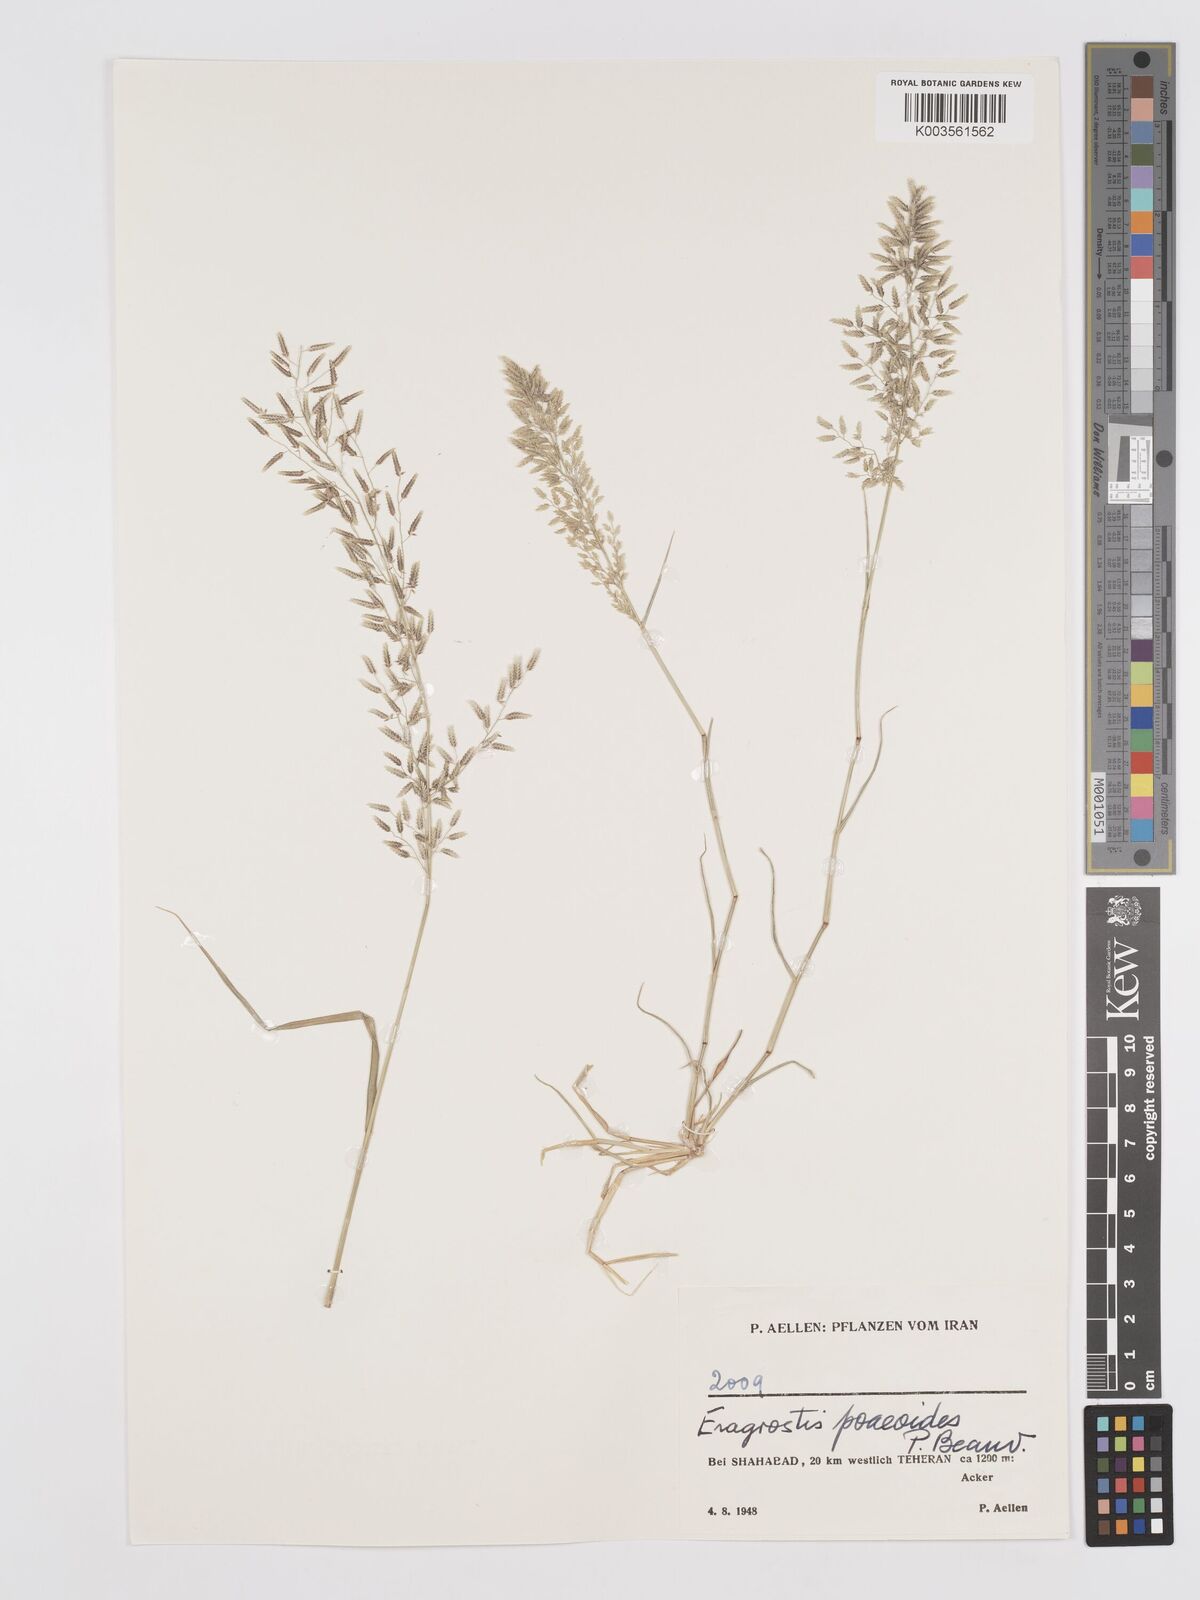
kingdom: Plantae
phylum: Tracheophyta
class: Liliopsida
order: Poales
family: Poaceae
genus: Eragrostis
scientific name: Eragrostis minor
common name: Small love-grass
